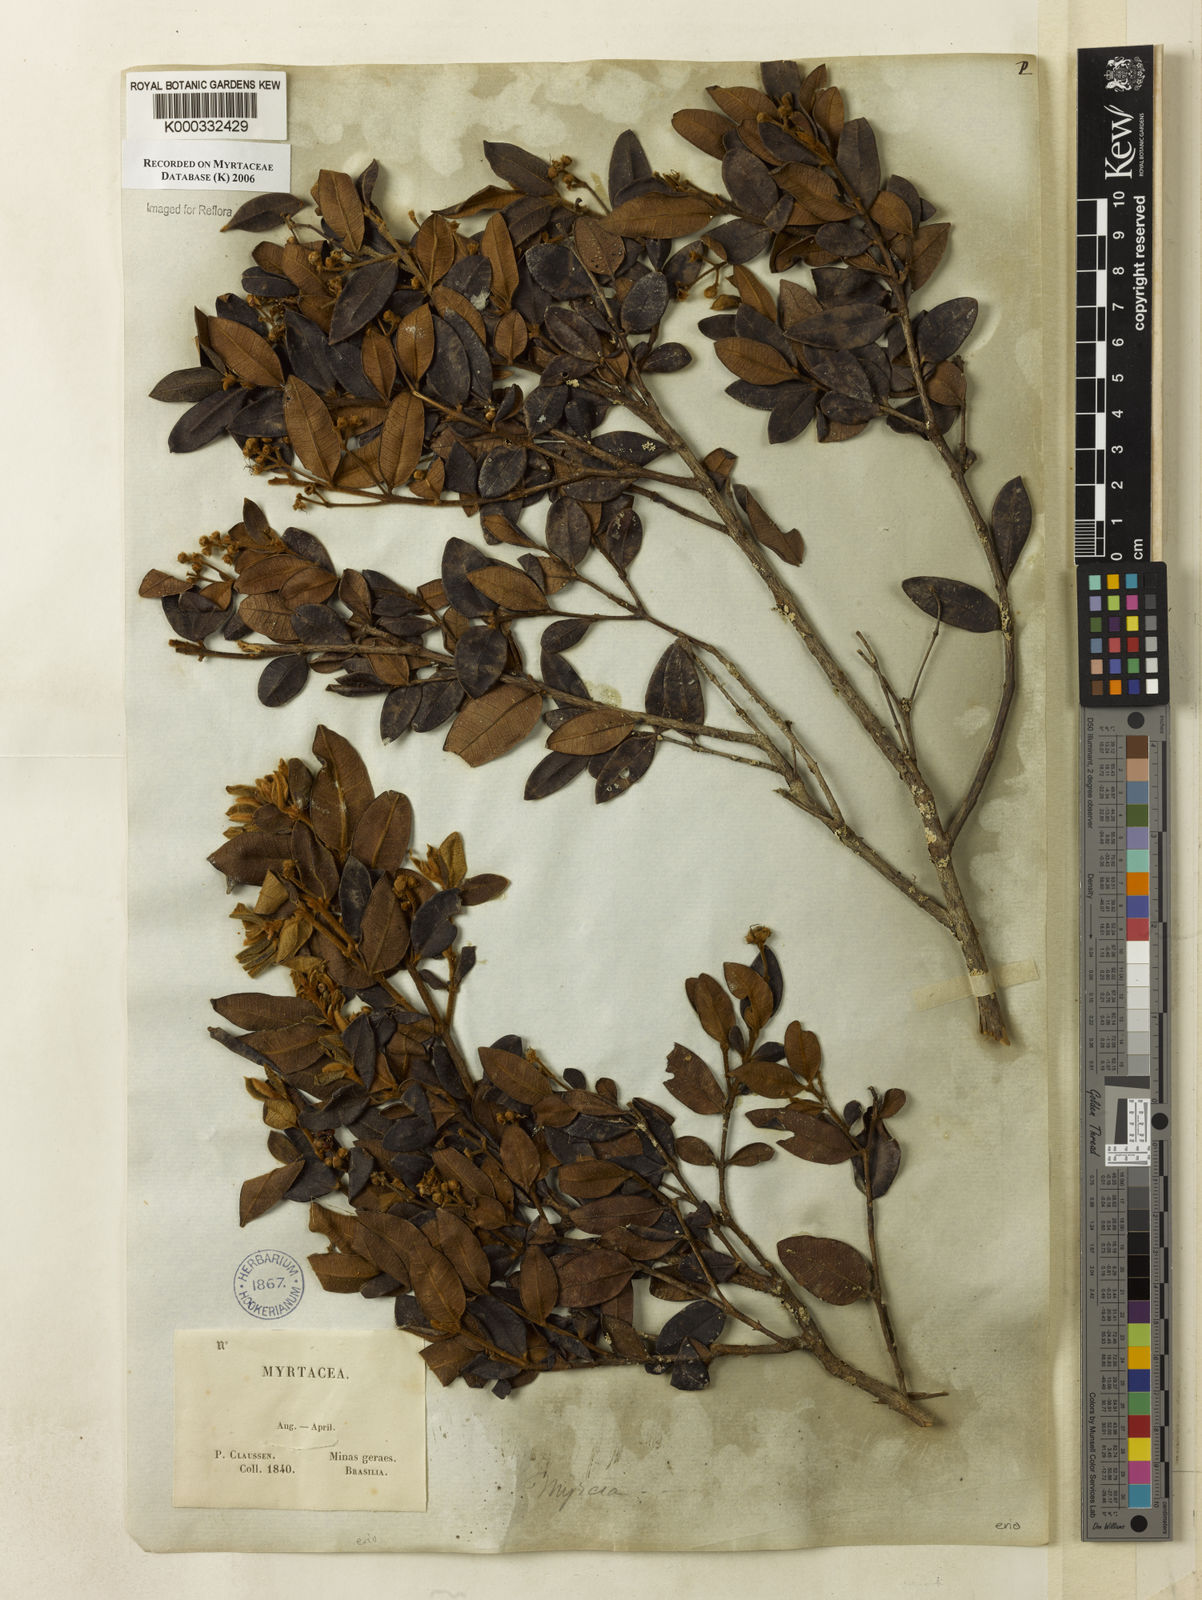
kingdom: Plantae
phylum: Tracheophyta
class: Magnoliopsida
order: Myrtales
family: Myrtaceae
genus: Myrcia
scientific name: Myrcia eriocalyx
